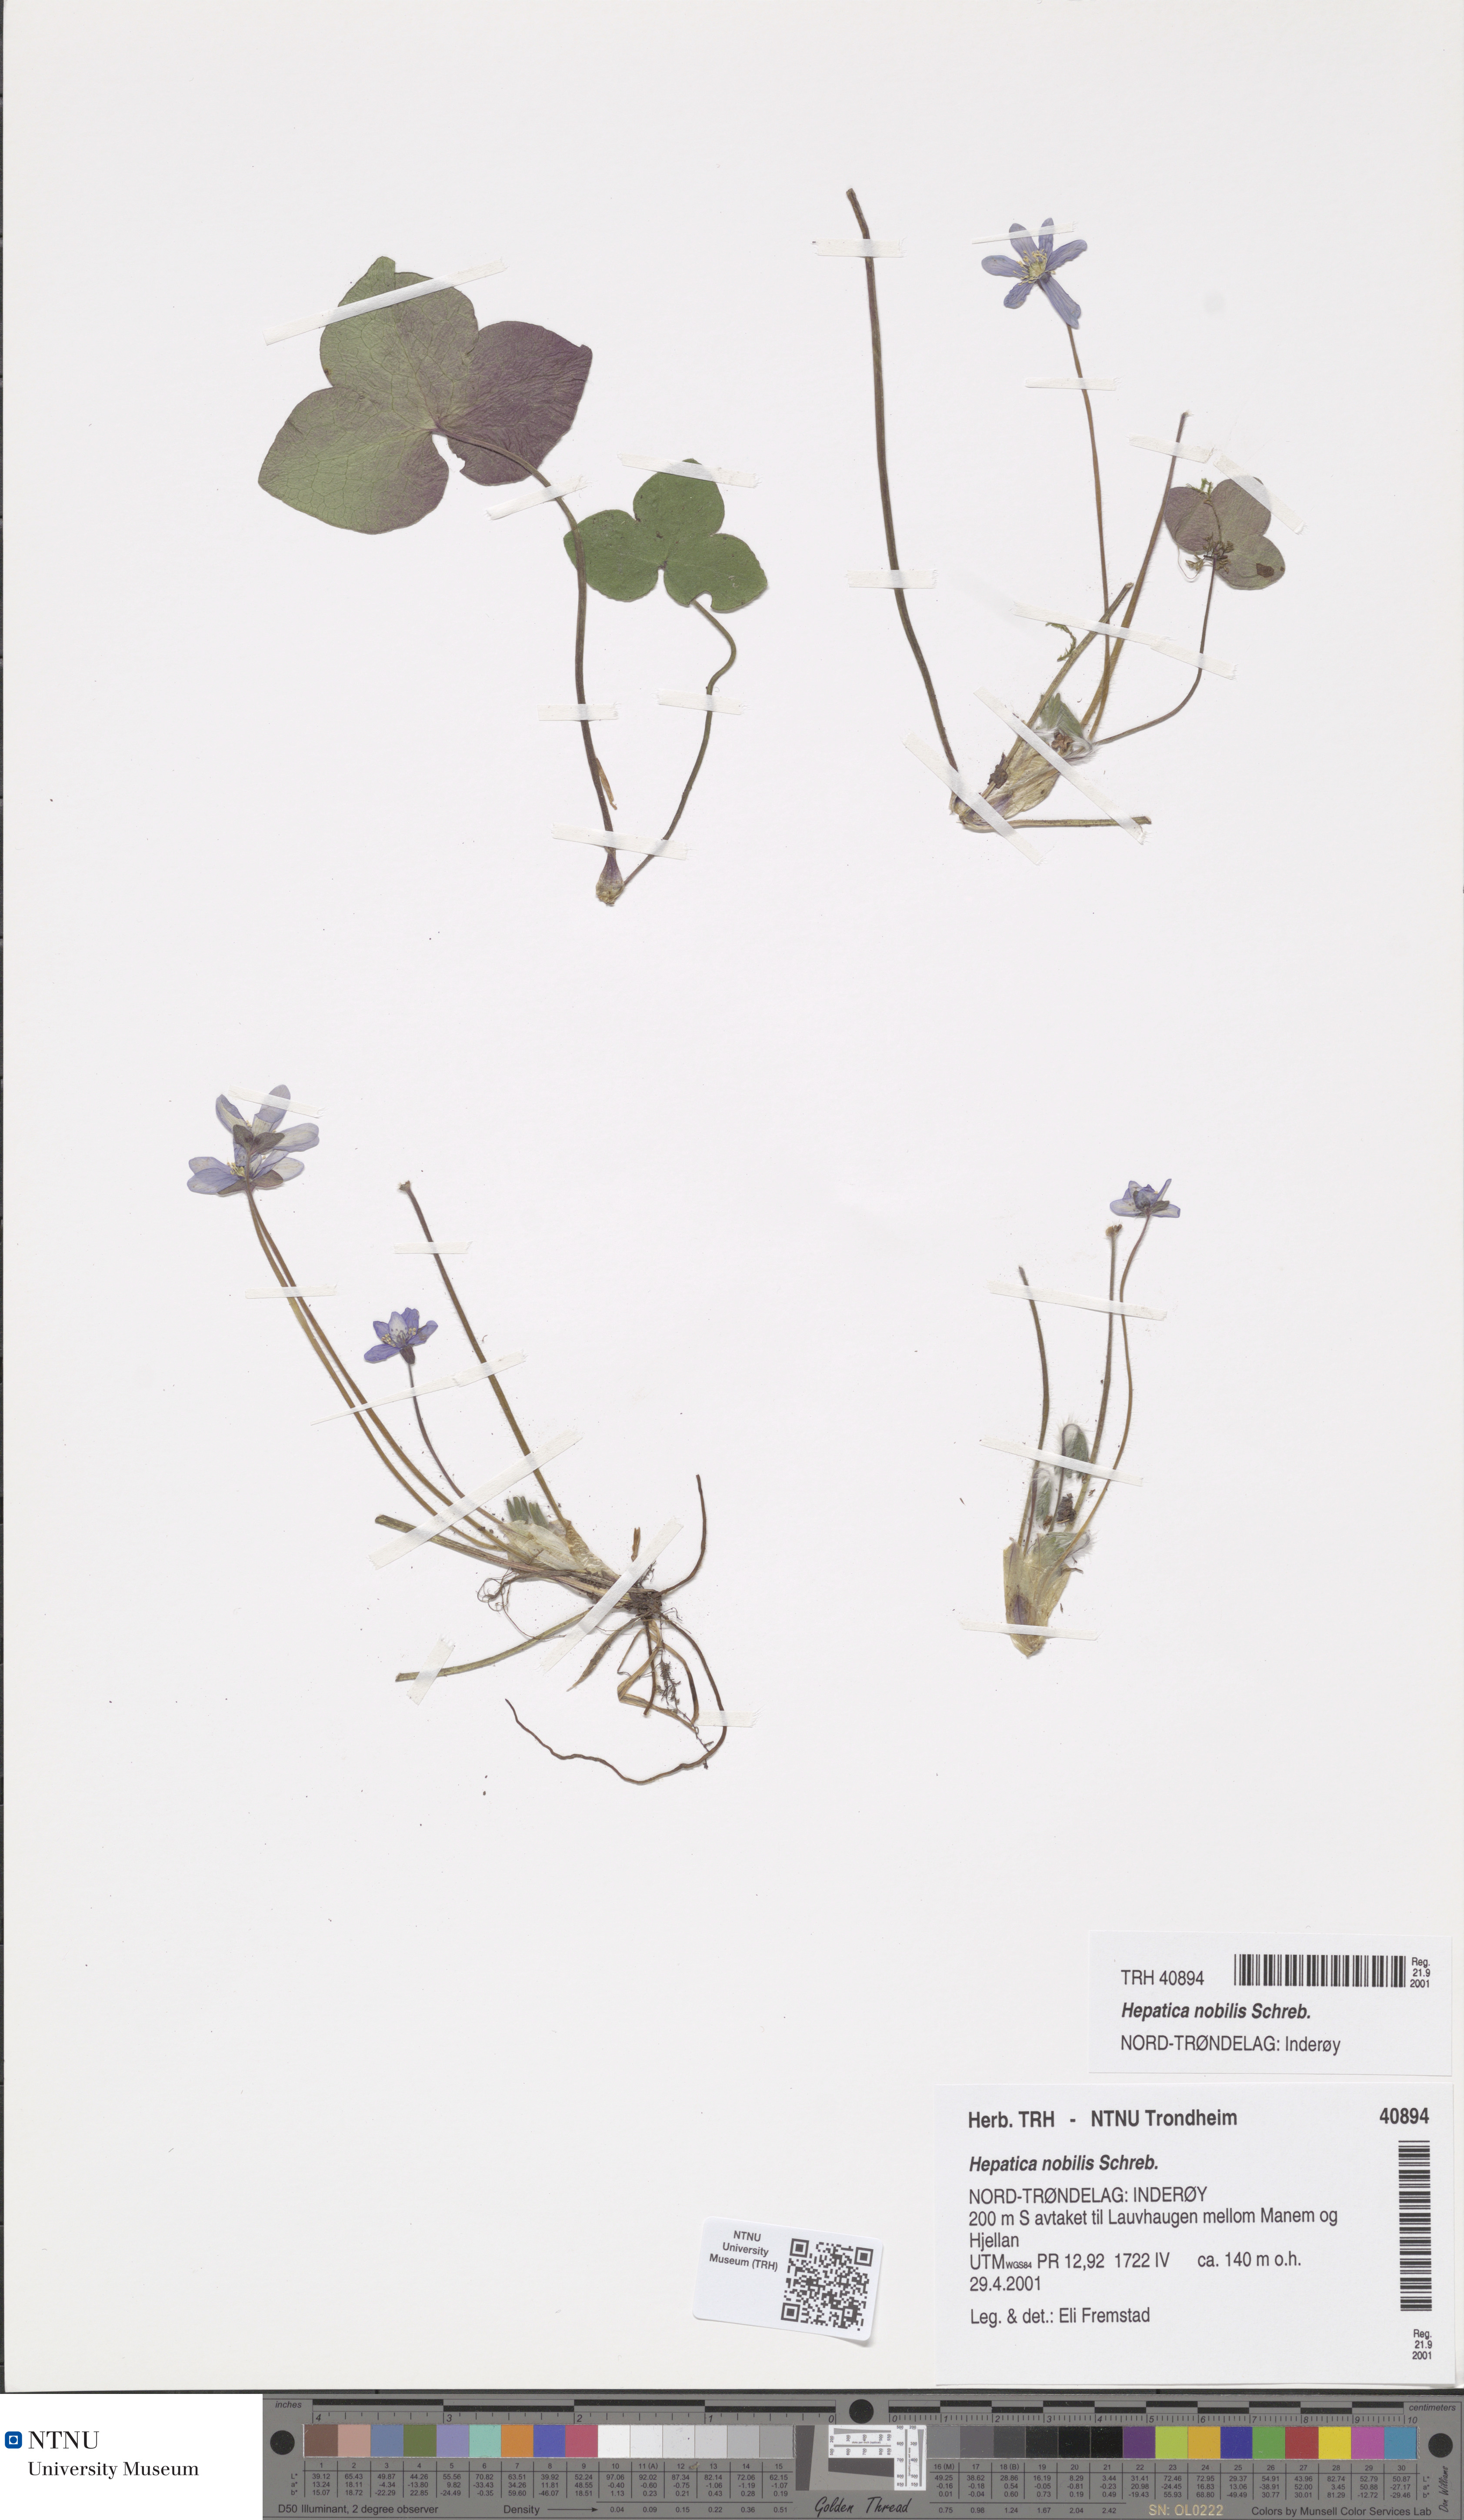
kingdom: Plantae
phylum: Tracheophyta
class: Magnoliopsida
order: Ranunculales
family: Ranunculaceae
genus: Hepatica
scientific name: Hepatica nobilis
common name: Liverleaf
